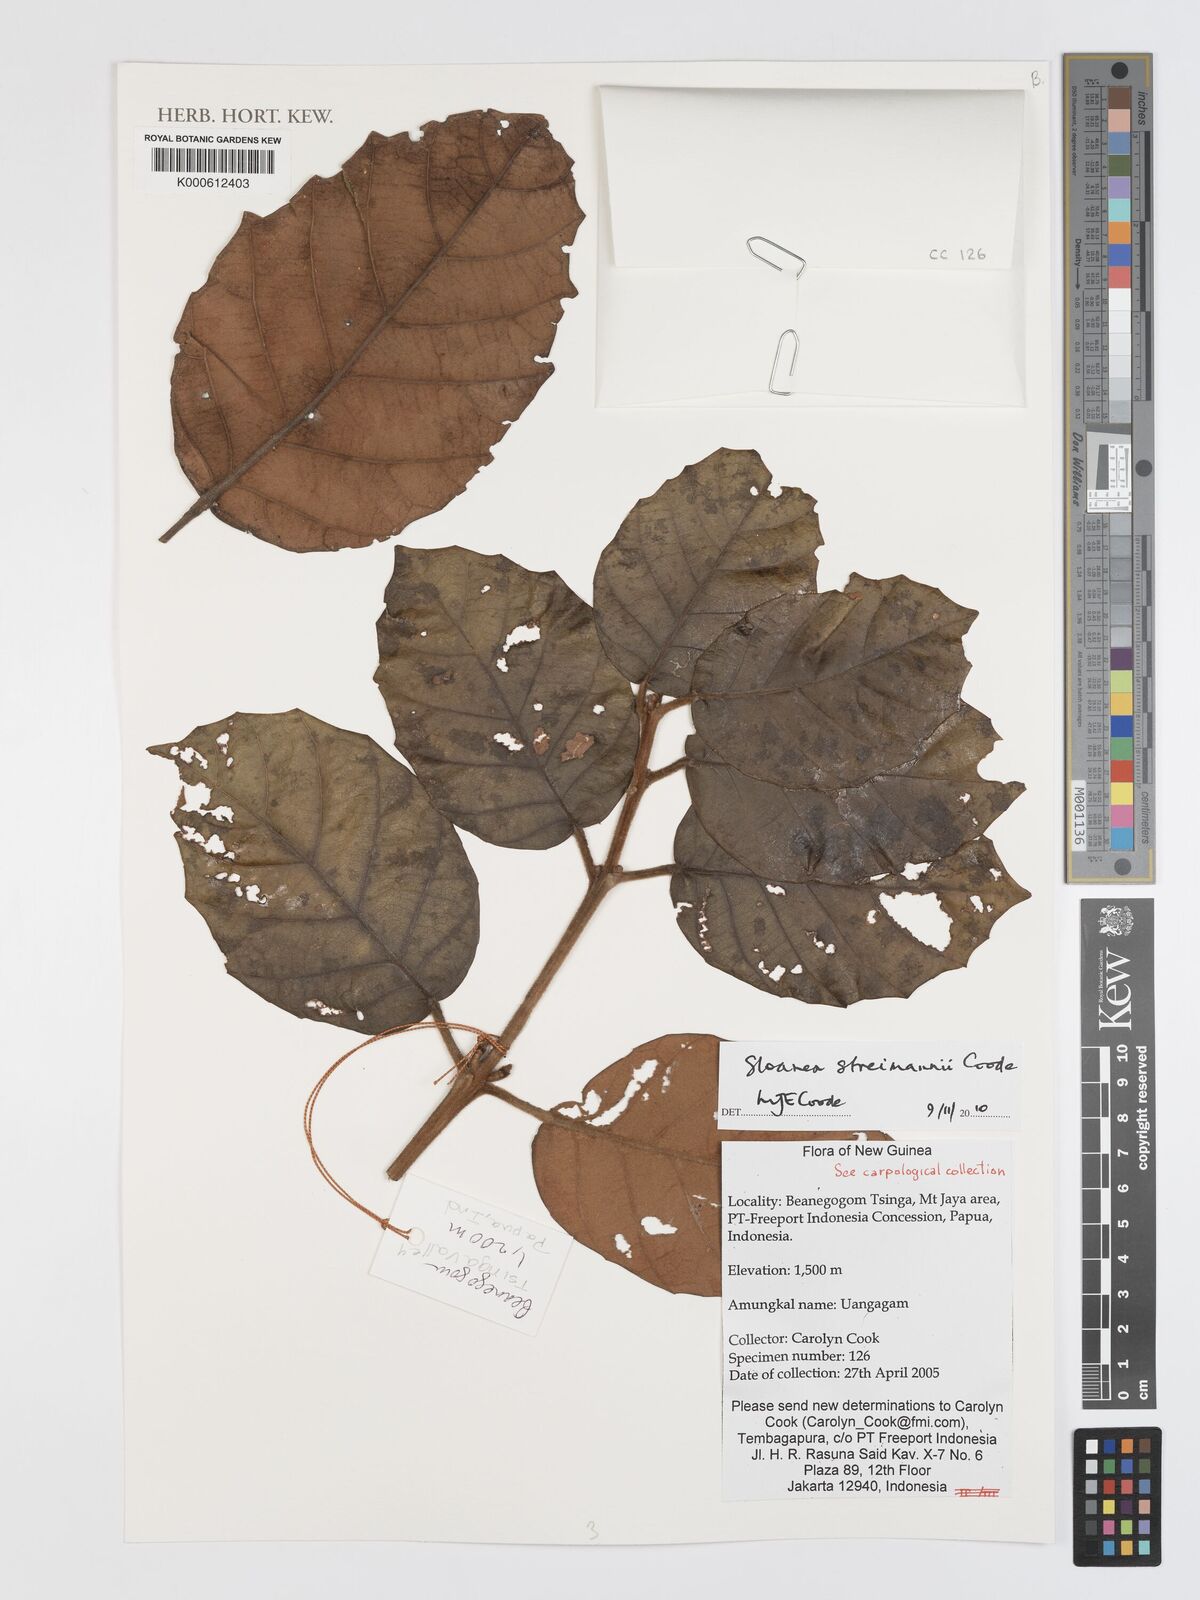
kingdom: Plantae
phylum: Tracheophyta
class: Magnoliopsida
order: Oxalidales
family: Elaeocarpaceae
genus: Sloanea
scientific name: Sloanea streimannii
